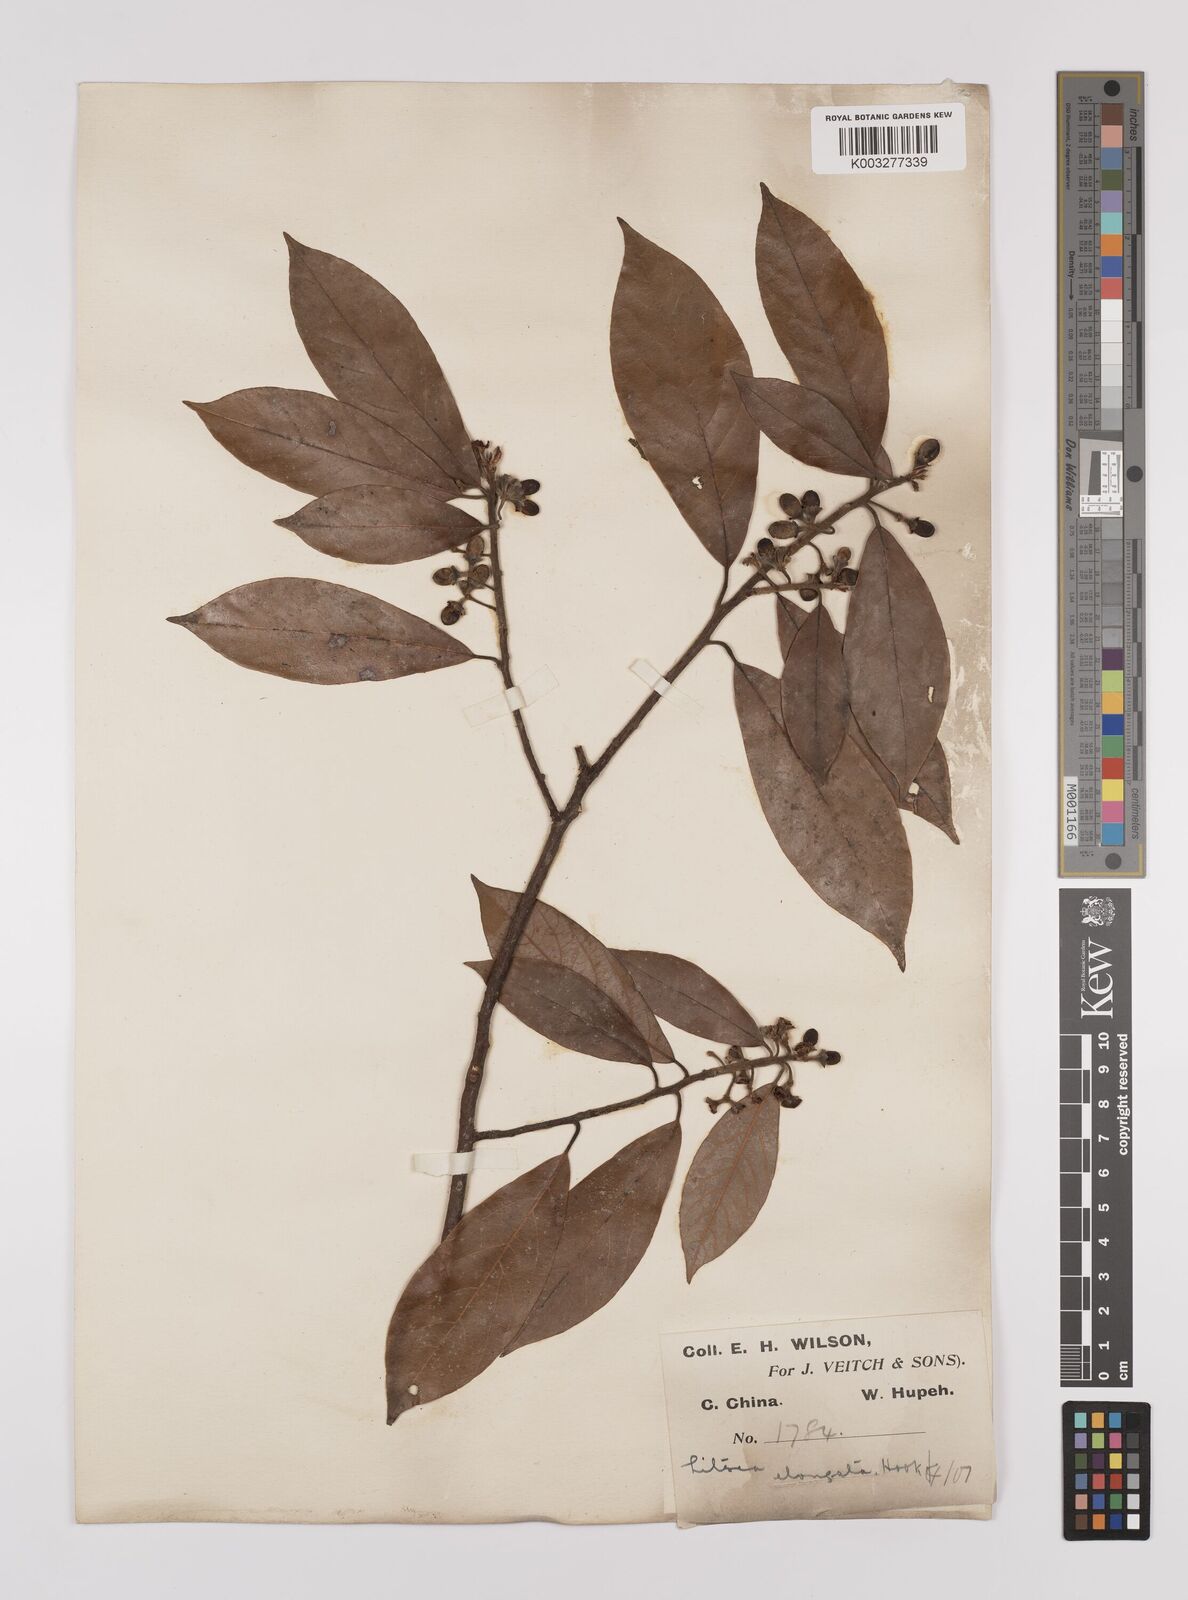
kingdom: Plantae
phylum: Tracheophyta
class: Magnoliopsida
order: Laurales
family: Lauraceae
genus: Litsea
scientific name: Litsea elongata
